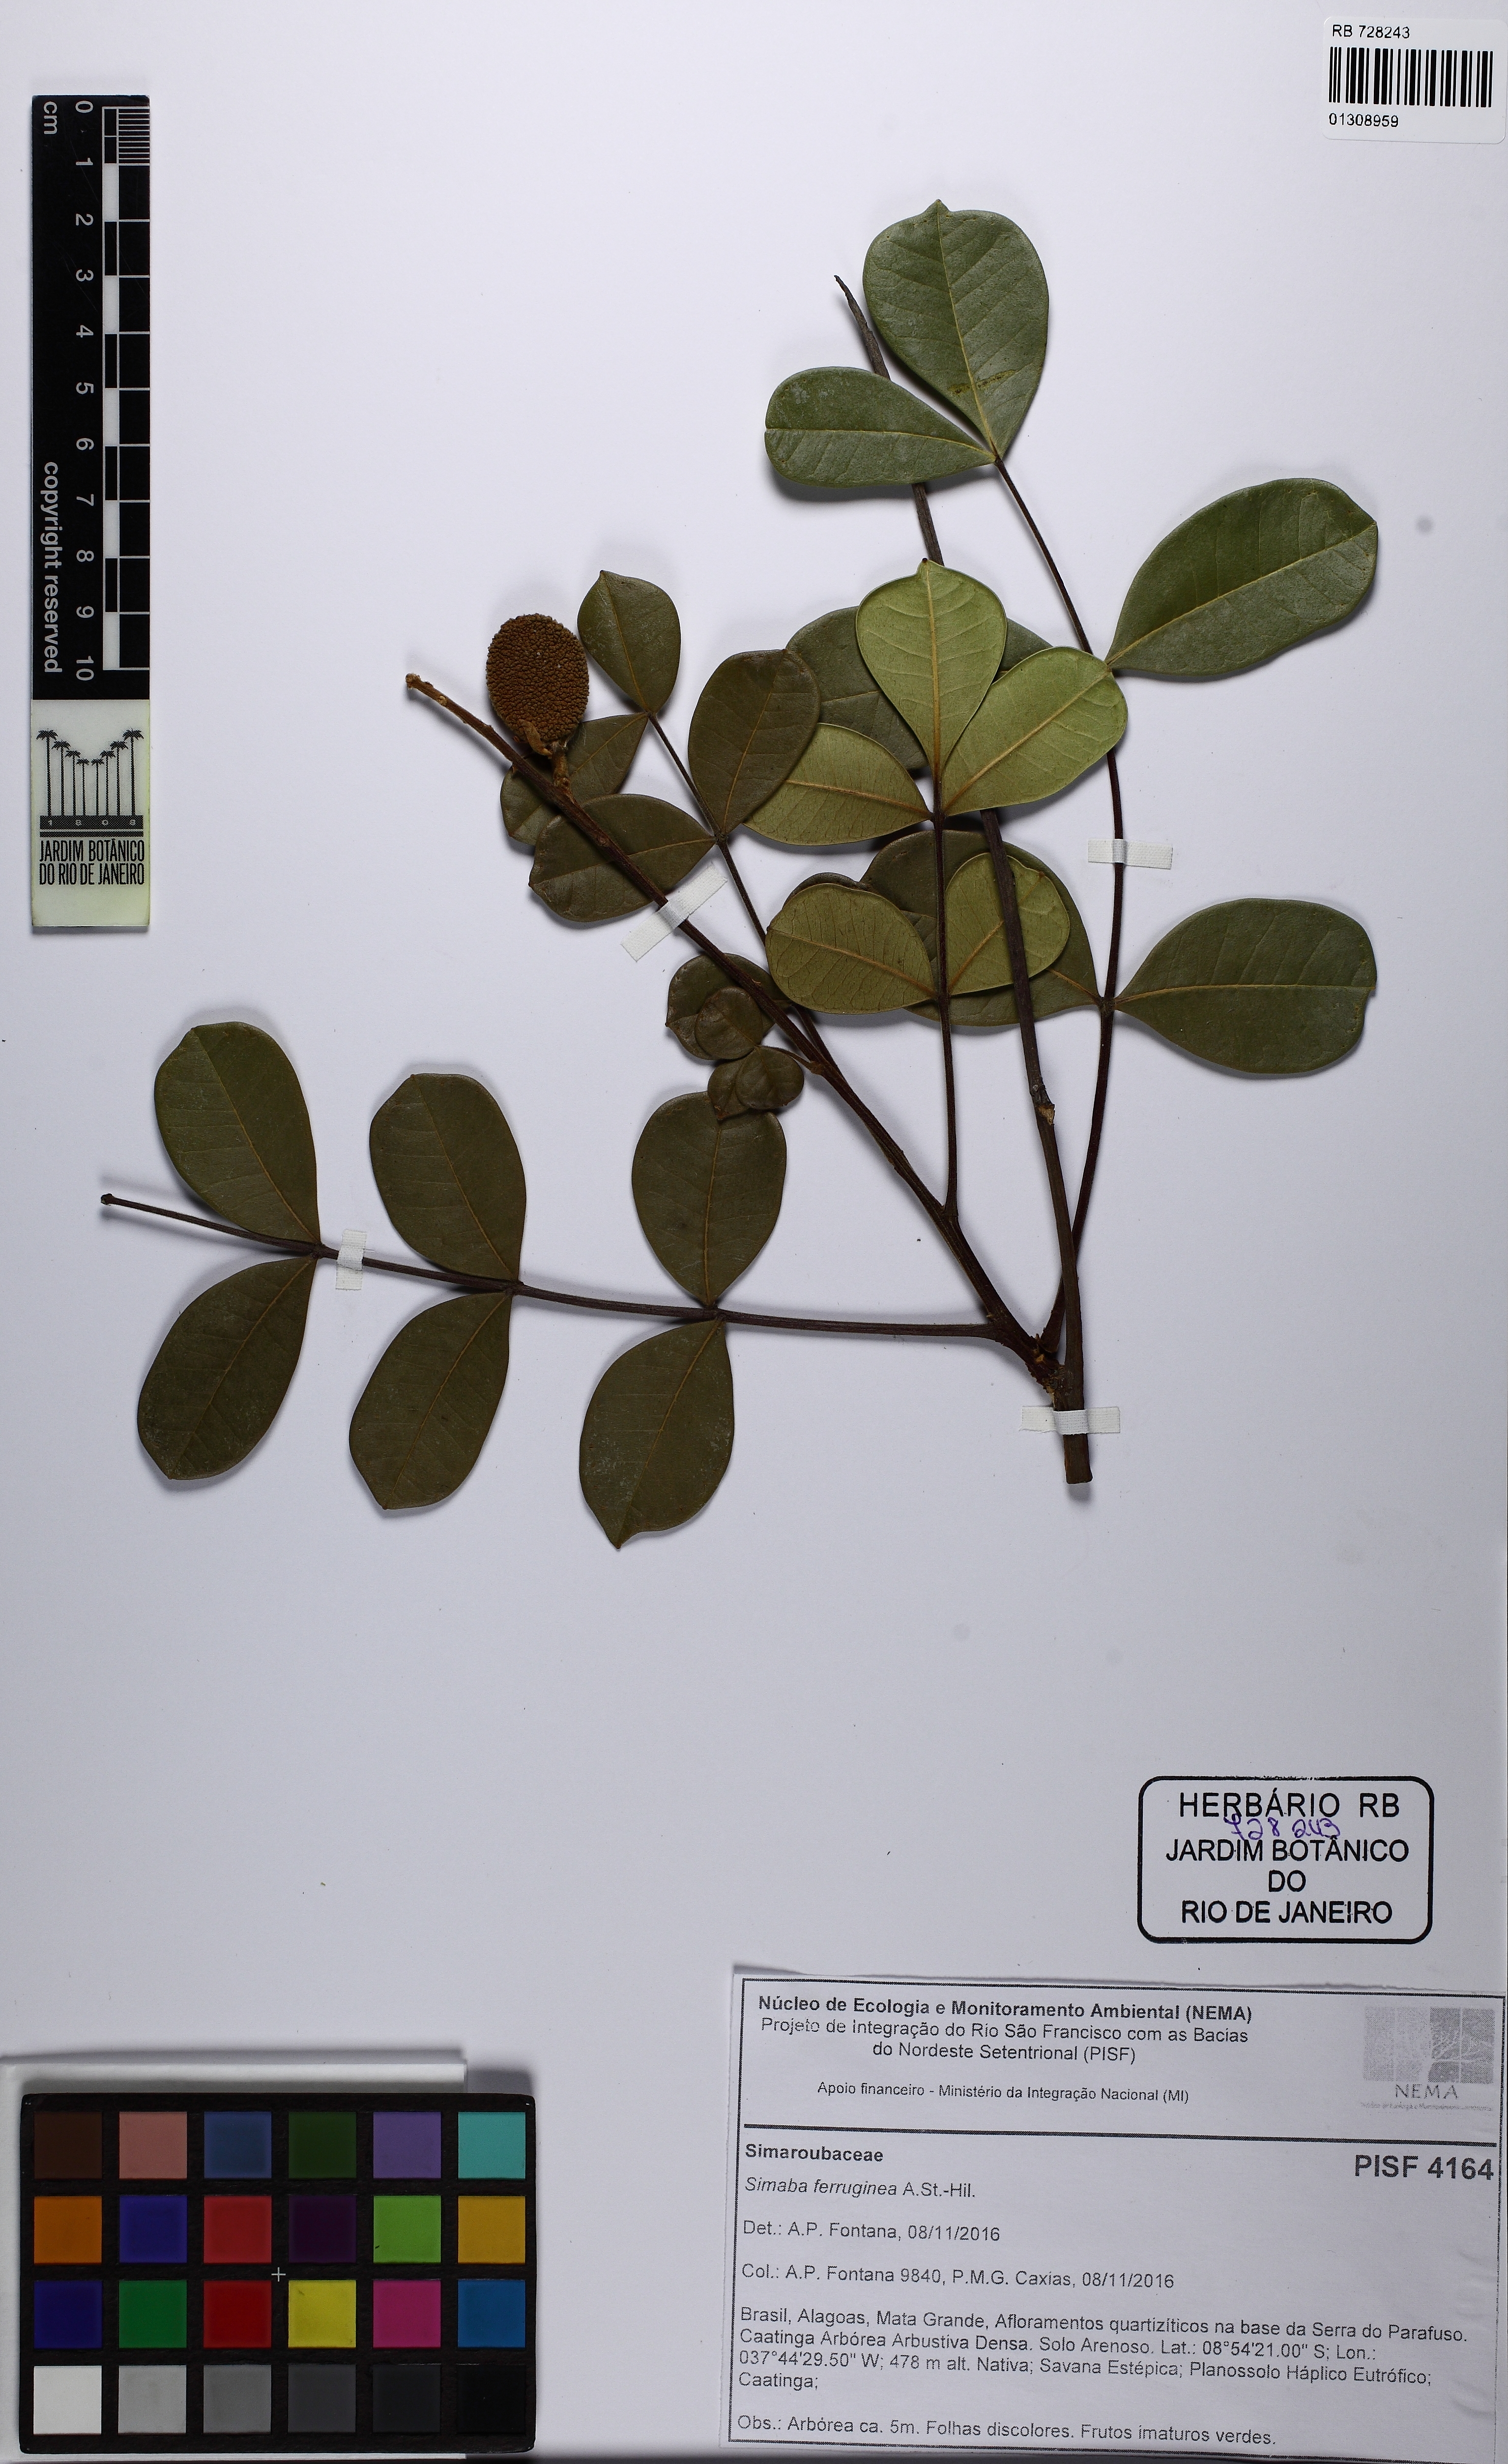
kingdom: Plantae
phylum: Tracheophyta
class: Magnoliopsida
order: Sapindales
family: Simaroubaceae
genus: Homalolepis
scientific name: Homalolepis ferruginea
